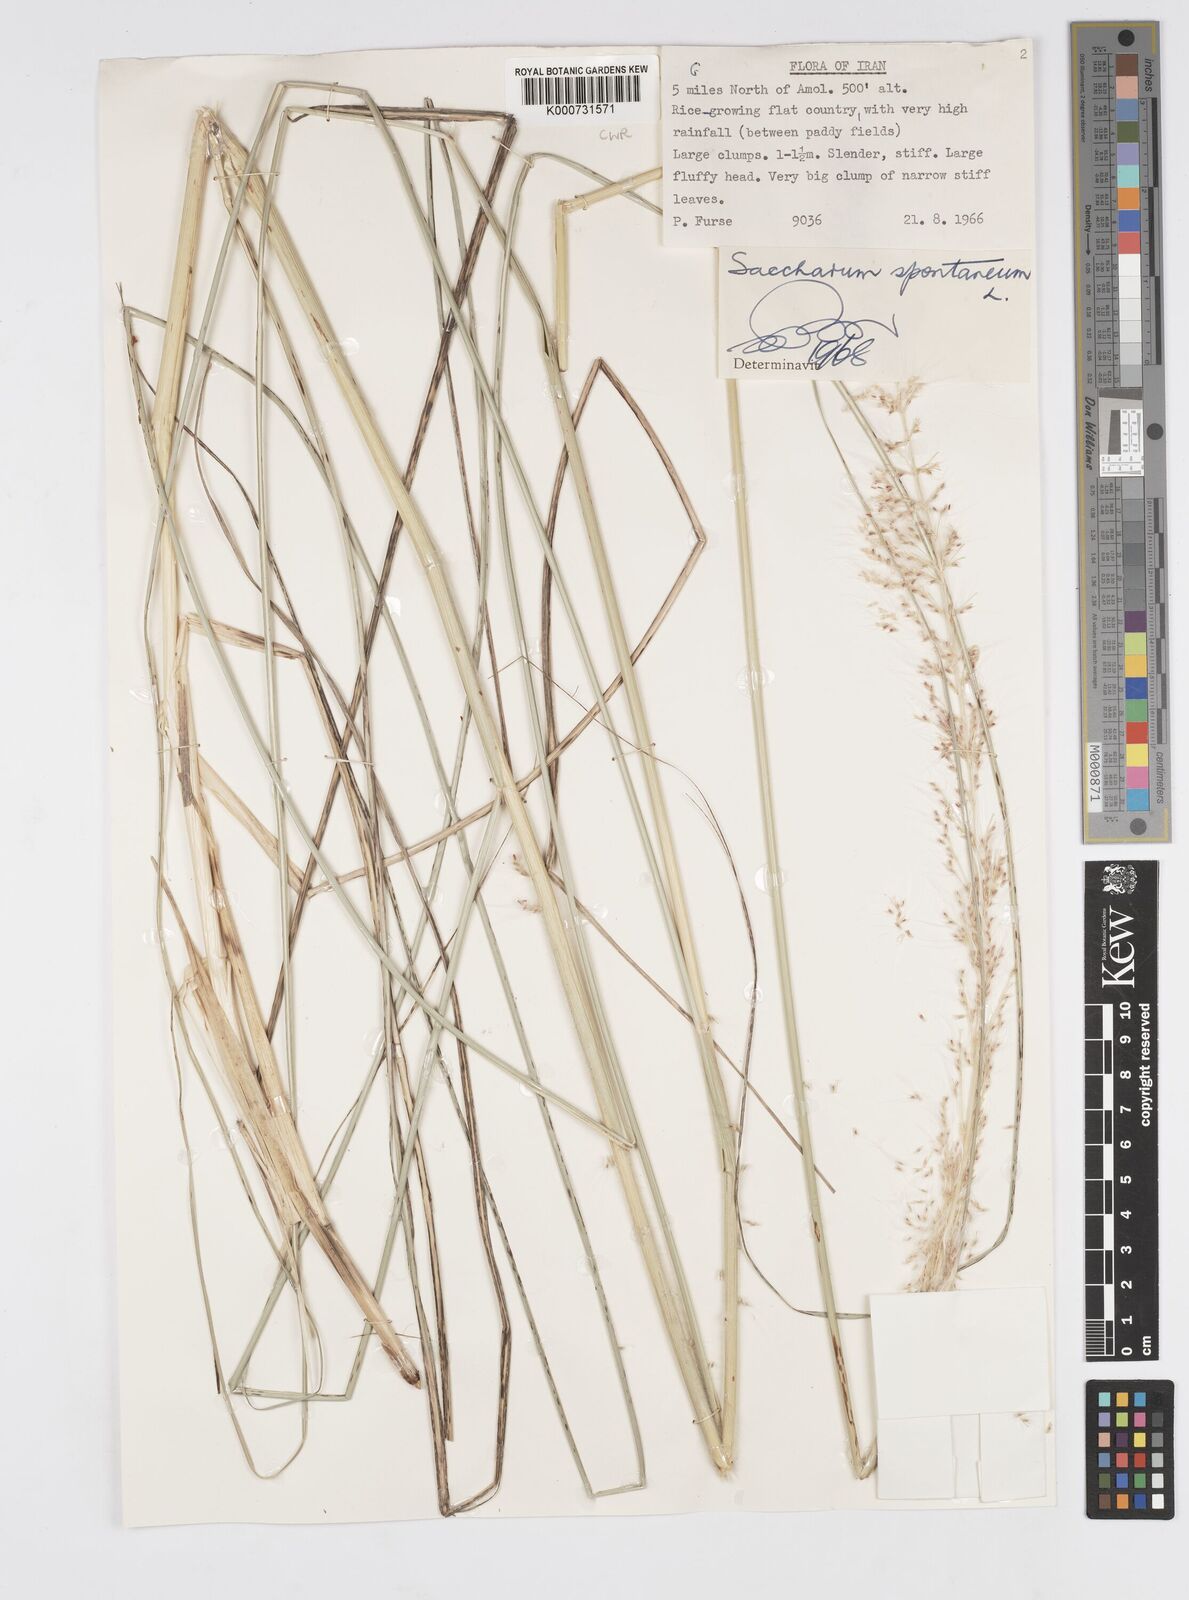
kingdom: Plantae
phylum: Tracheophyta
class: Liliopsida
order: Poales
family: Poaceae
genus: Saccharum
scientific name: Saccharum spontaneum
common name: Wild sugarcane
